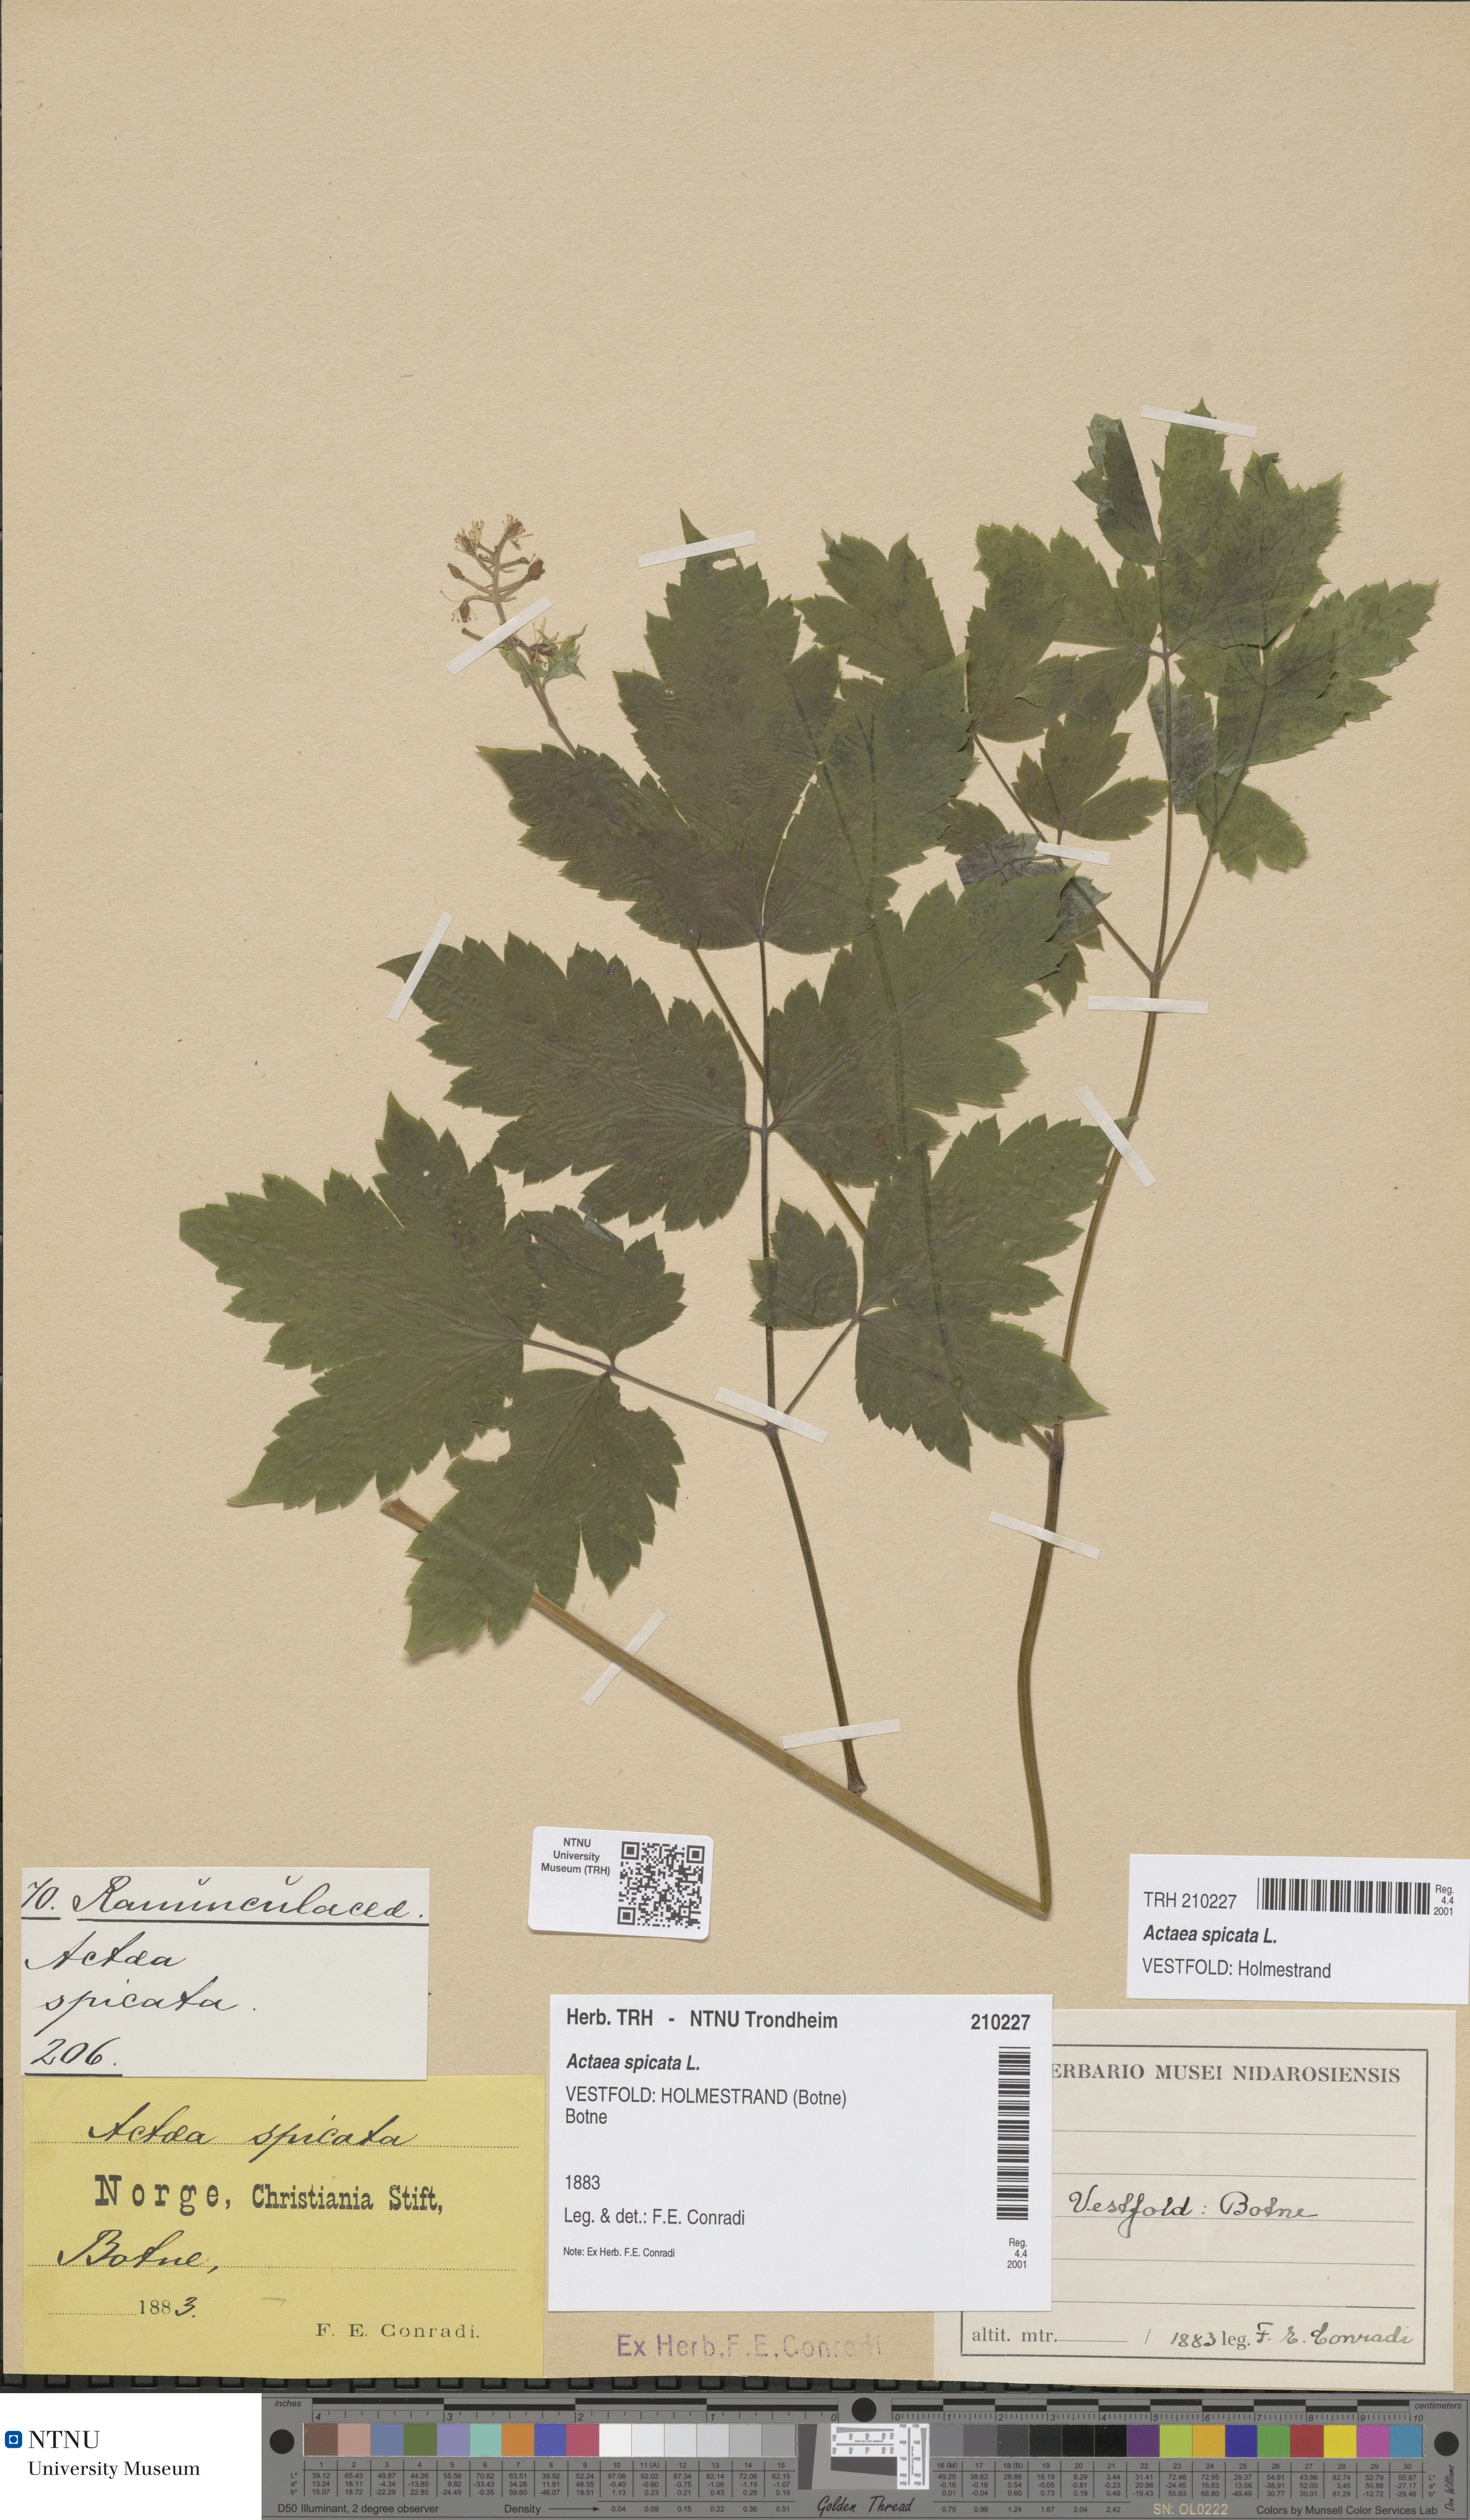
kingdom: Plantae
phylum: Tracheophyta
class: Magnoliopsida
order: Ranunculales
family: Ranunculaceae
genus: Actaea
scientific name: Actaea spicata
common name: Baneberry
